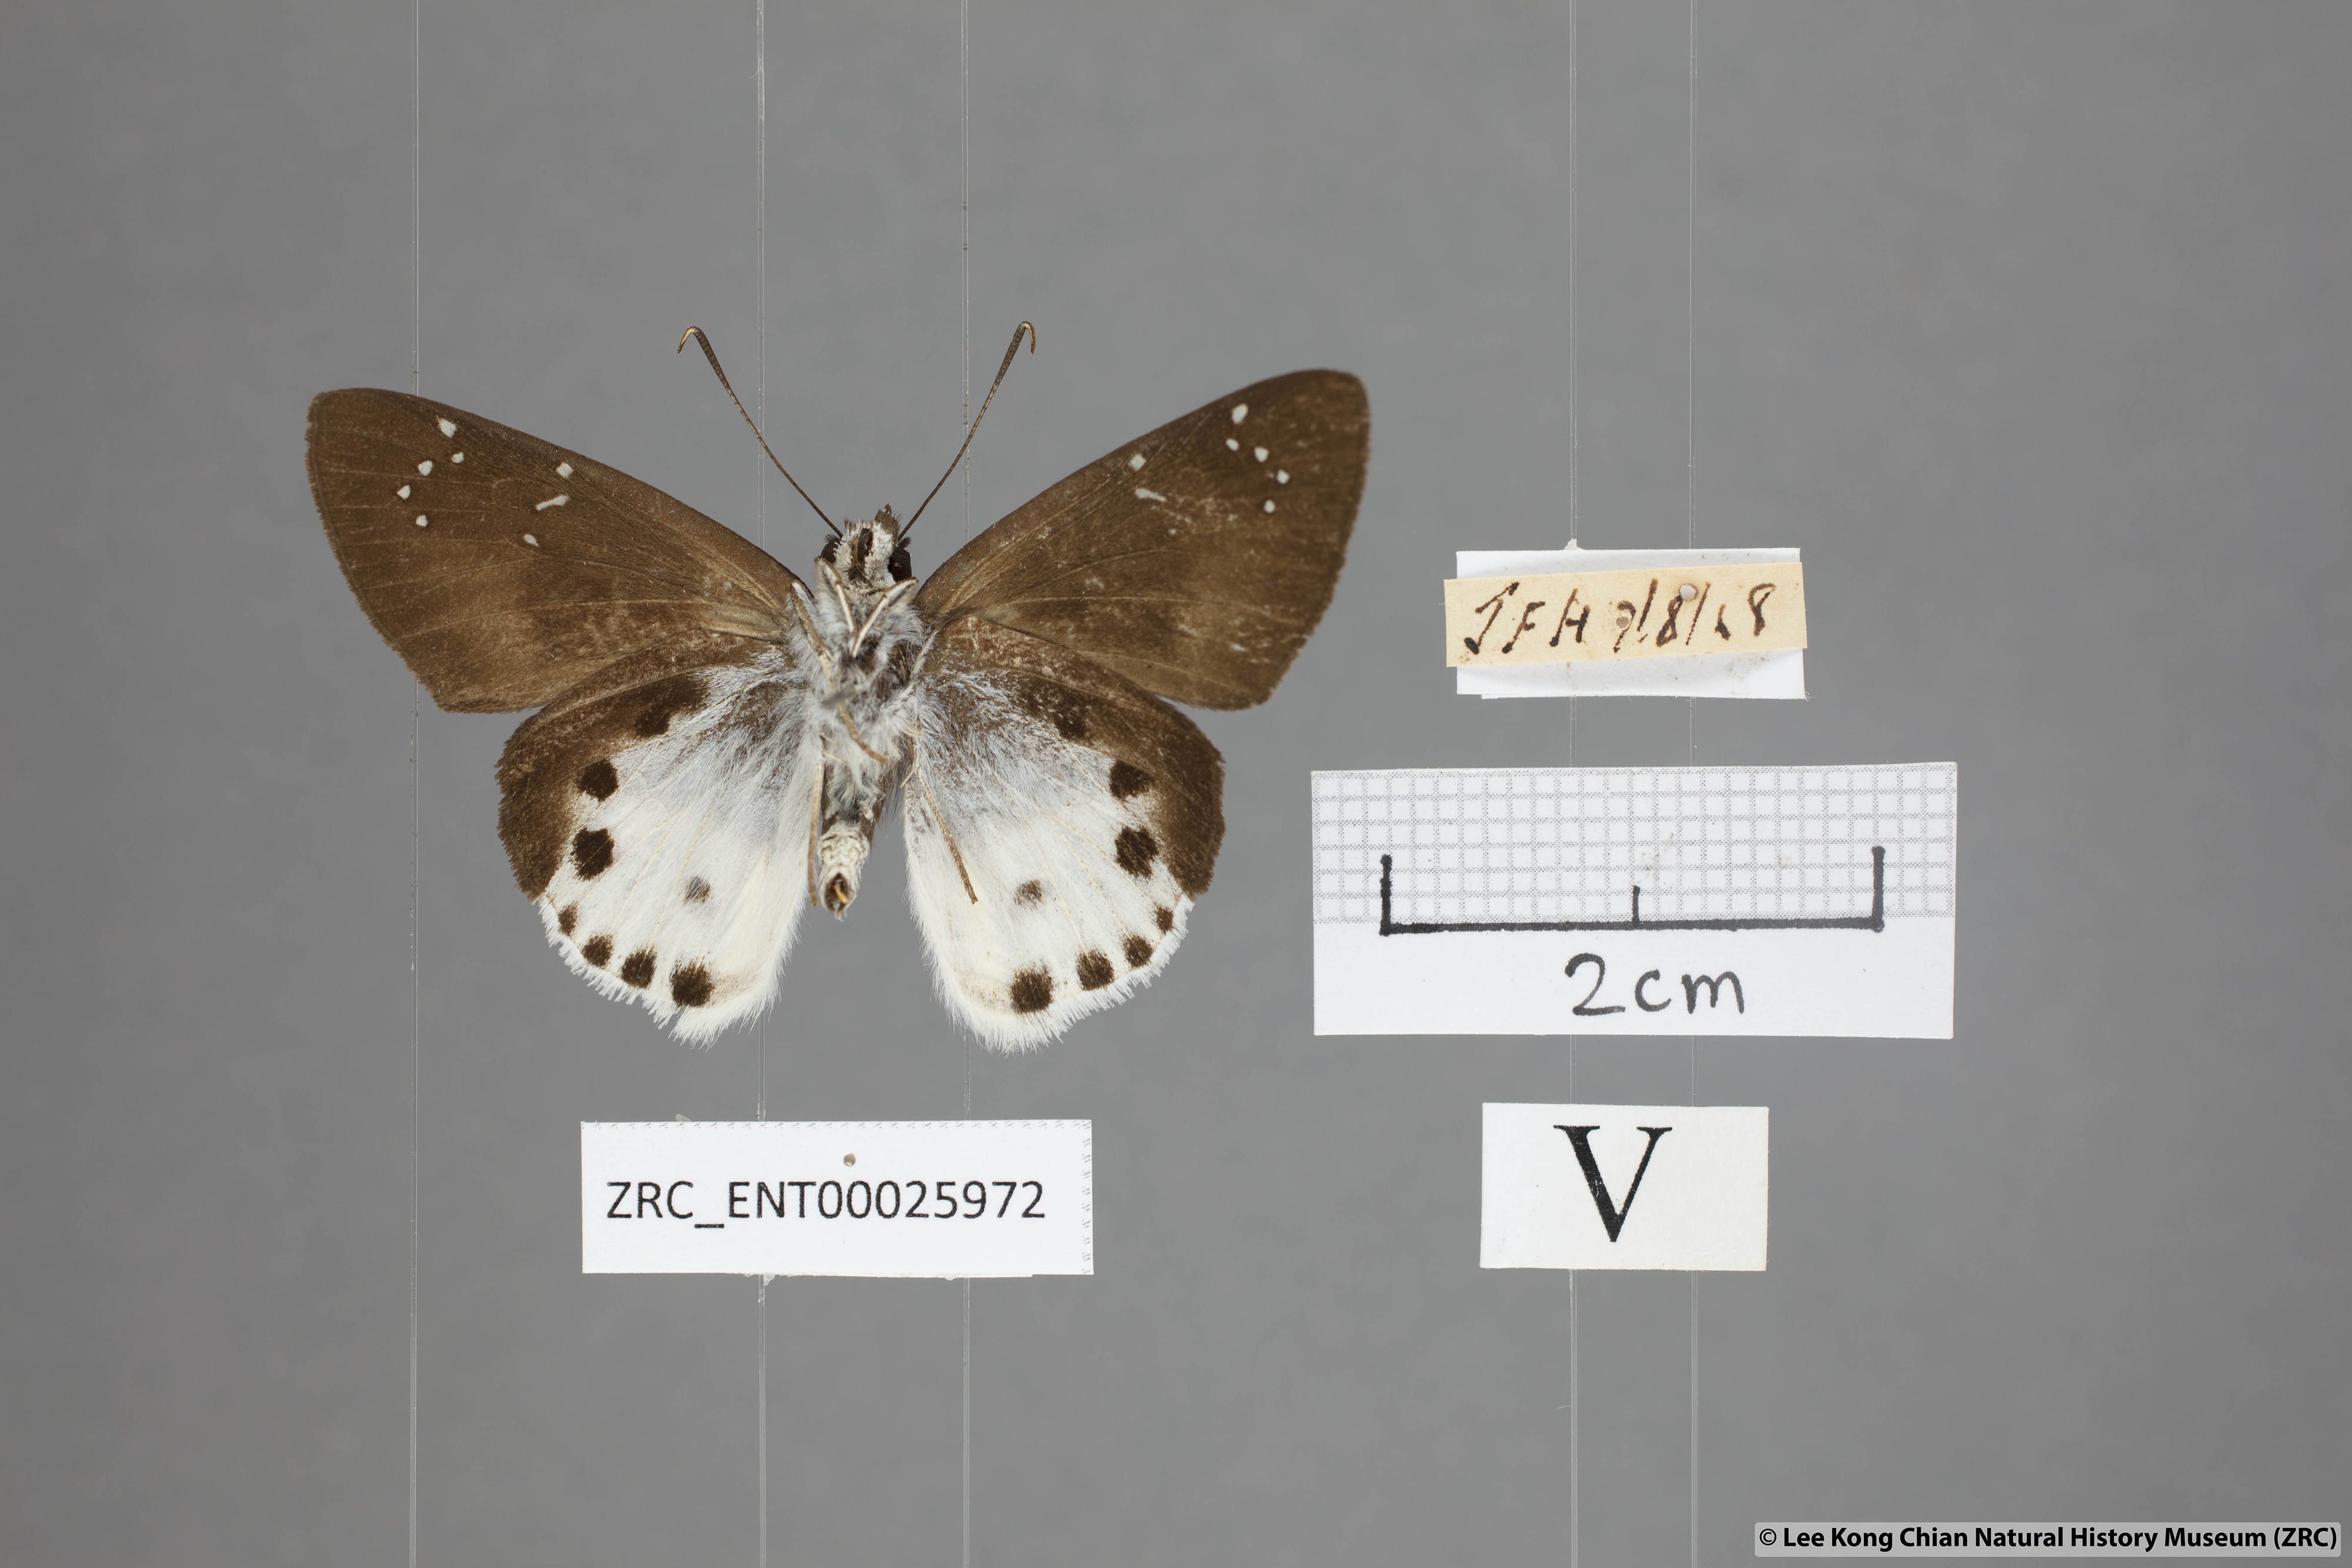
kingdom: Animalia
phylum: Arthropoda
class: Insecta
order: Lepidoptera
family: Hesperiidae
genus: Tagiades
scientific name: Tagiades cohaerens
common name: White-striped snow flat
